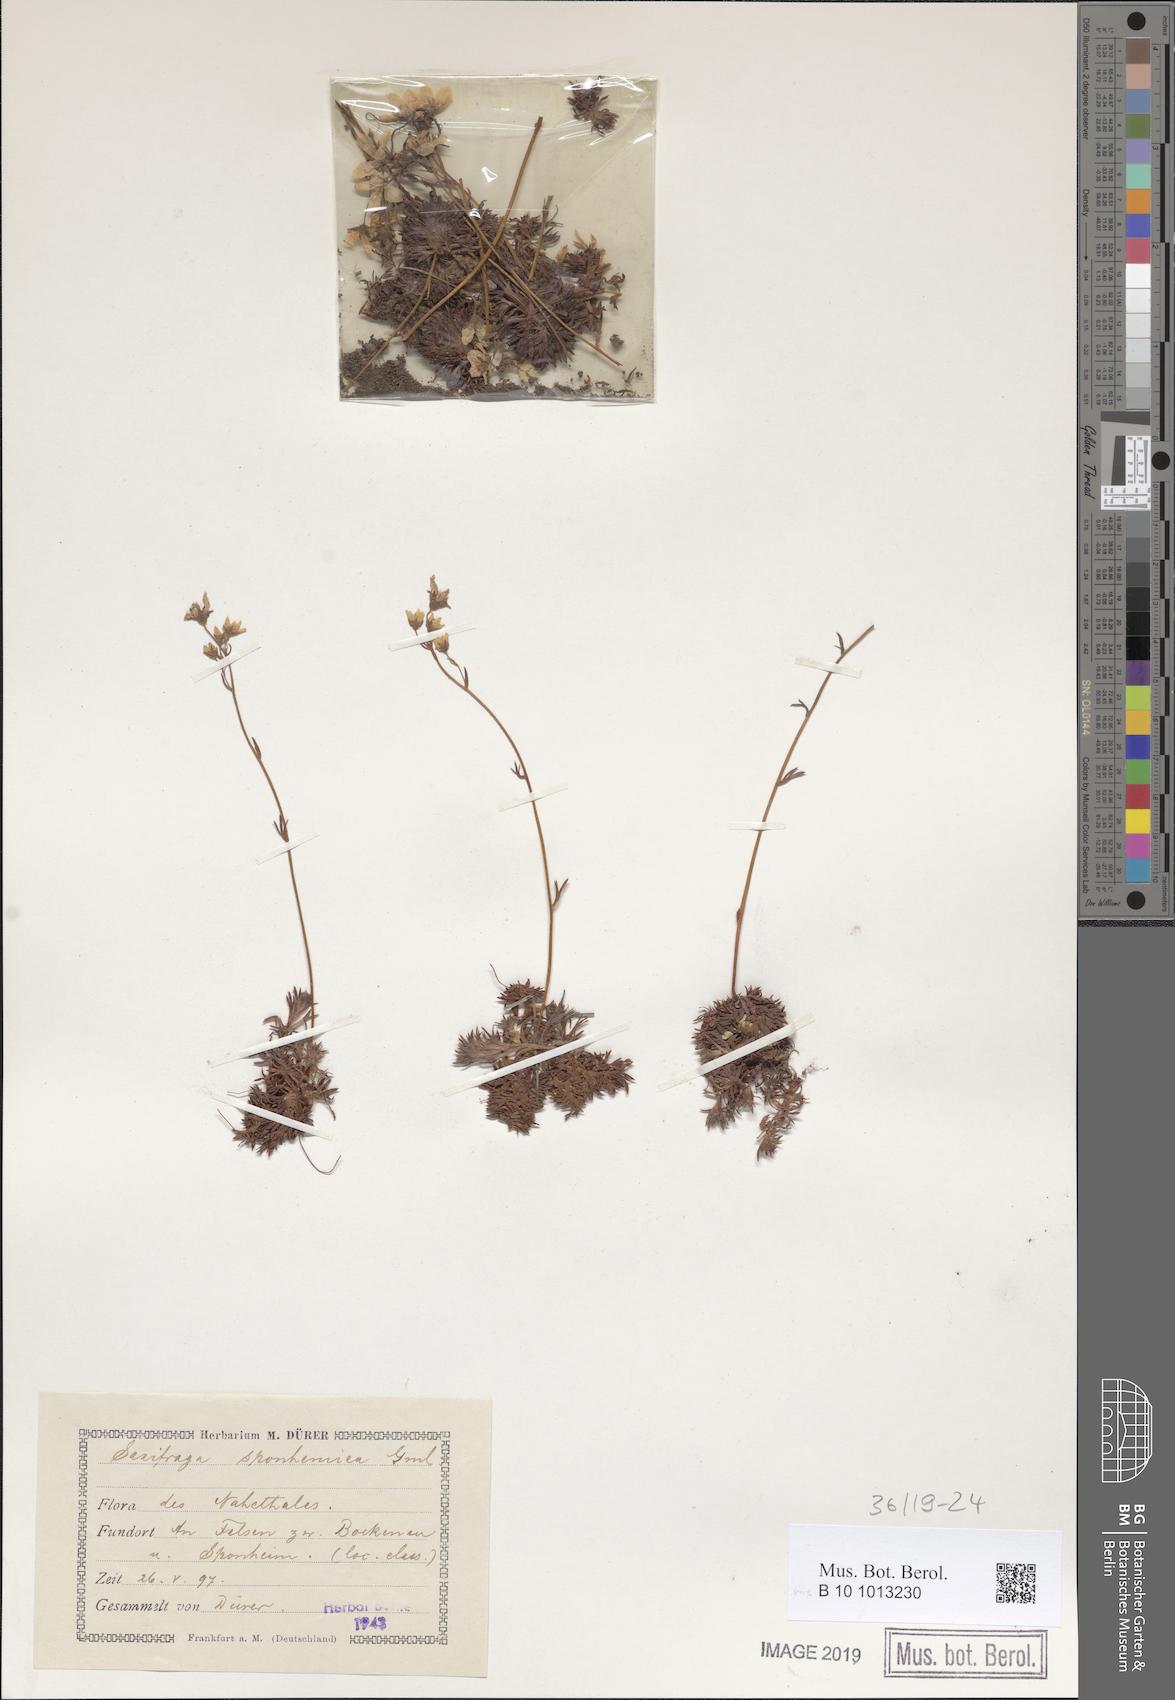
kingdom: Plantae
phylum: Tracheophyta
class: Magnoliopsida
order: Saxifragales
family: Saxifragaceae
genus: Saxifraga
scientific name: Saxifraga rosacea
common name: Irish saxifrage
